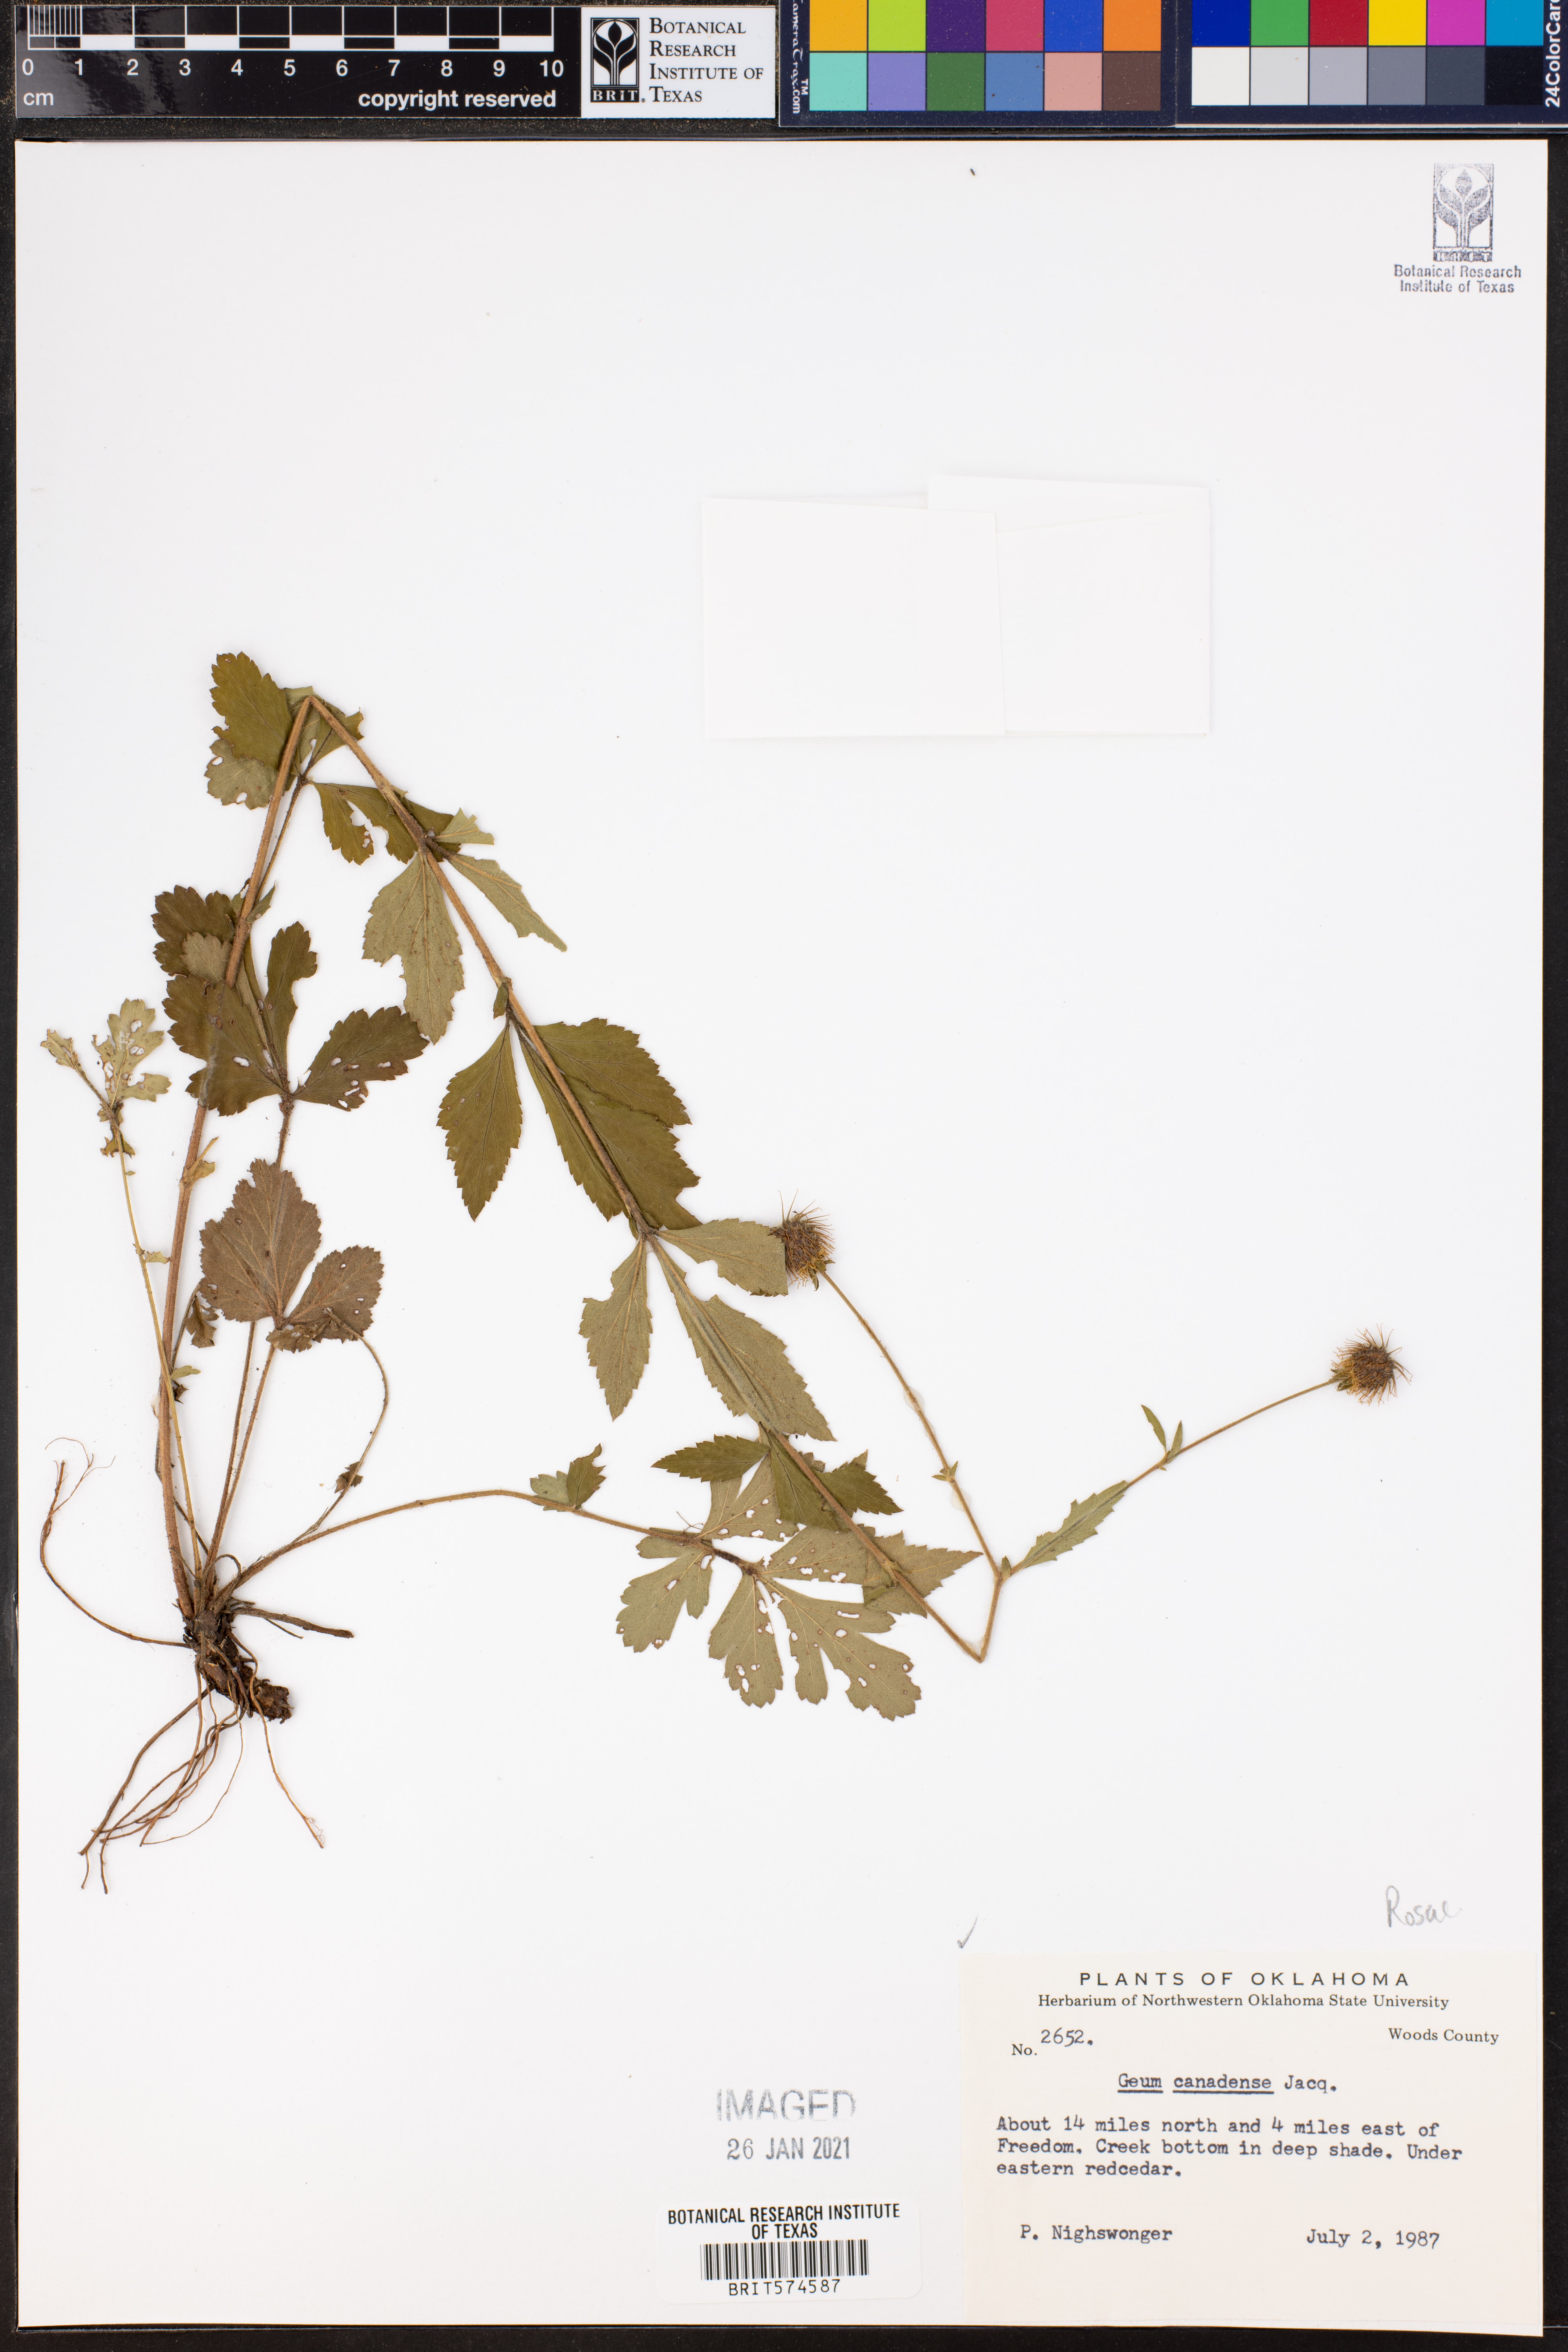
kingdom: Plantae
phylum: Tracheophyta
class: Magnoliopsida
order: Rosales
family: Rosaceae
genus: Geum
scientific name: Geum canadense
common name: White avens
